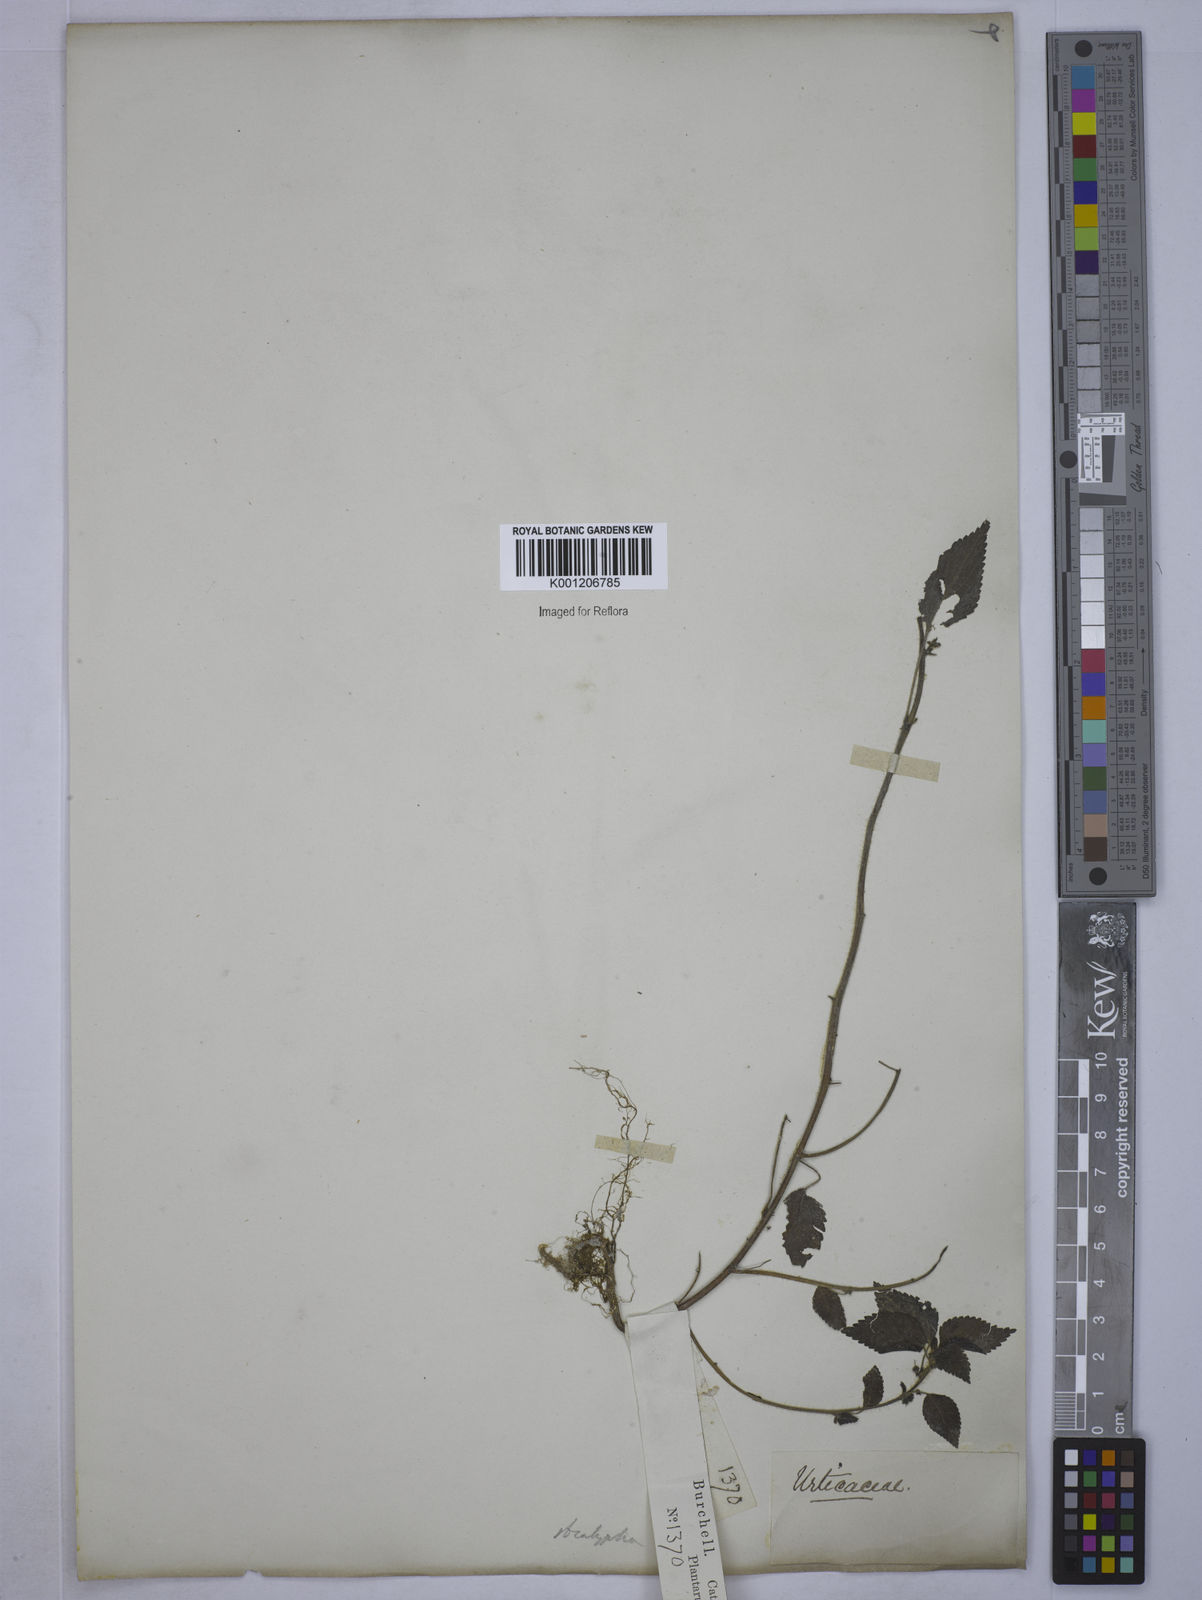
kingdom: Plantae
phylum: Tracheophyta
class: Magnoliopsida
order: Malpighiales
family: Euphorbiaceae
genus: Acalypha
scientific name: Acalypha
